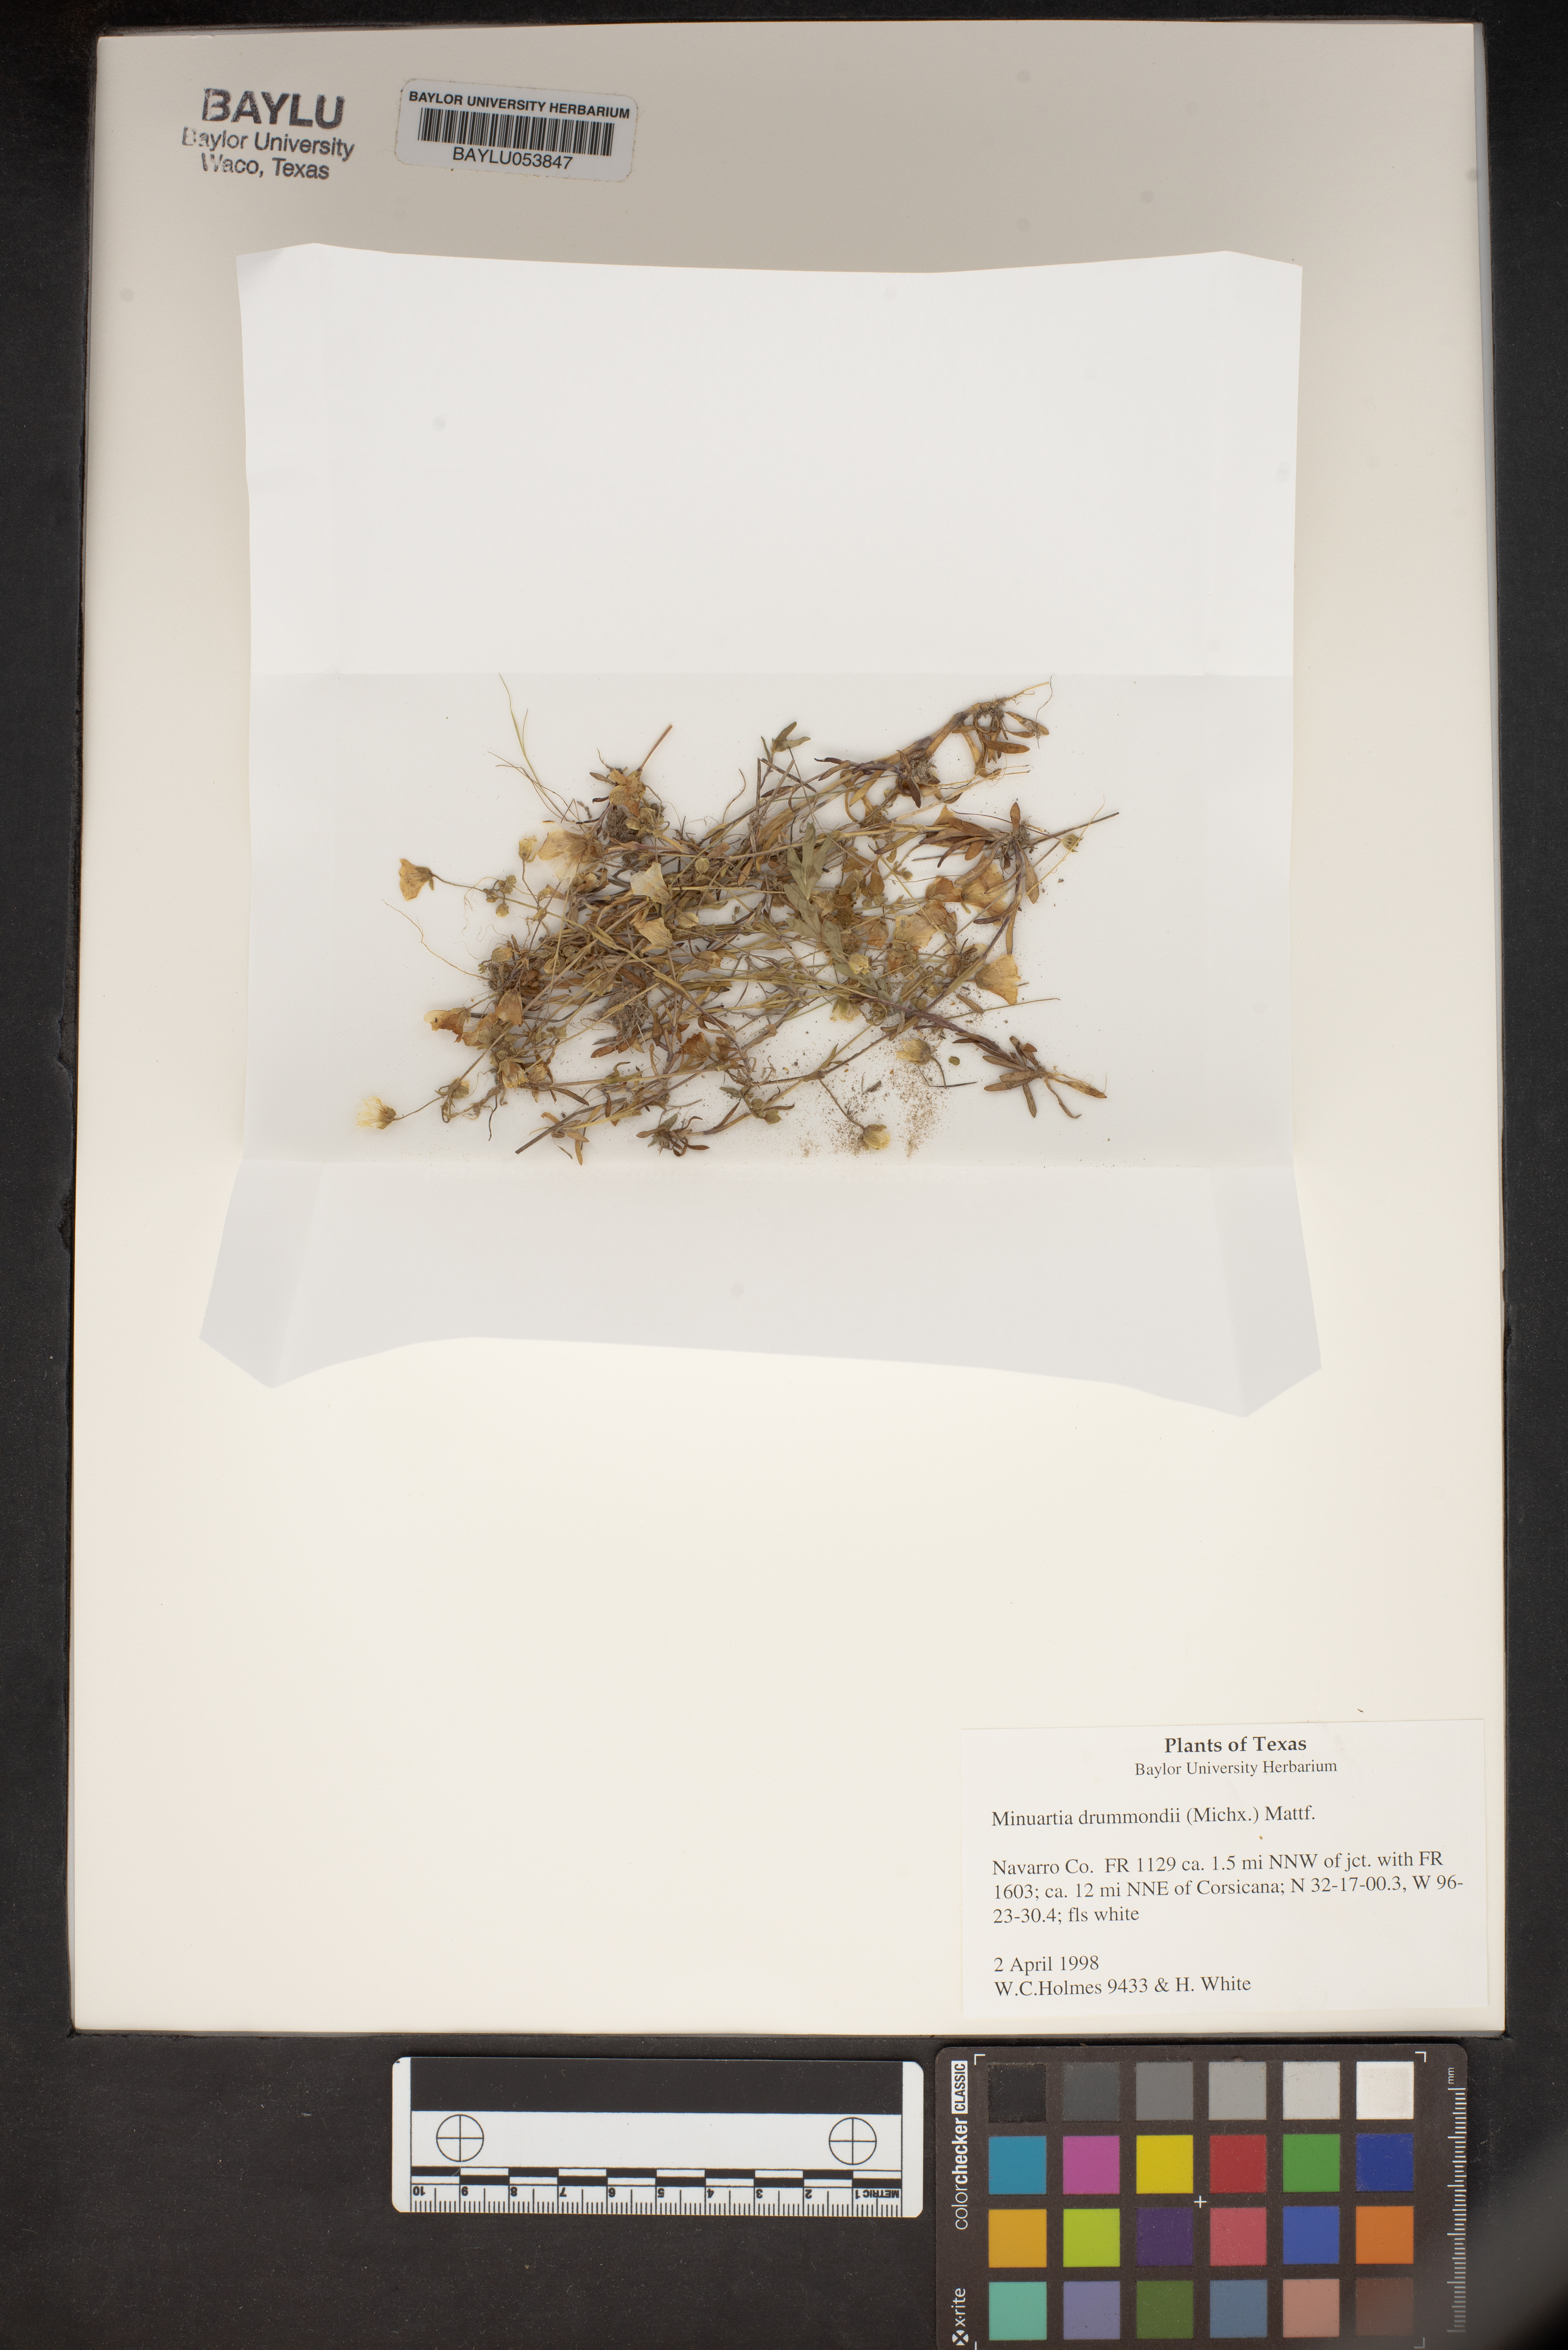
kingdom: Plantae
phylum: Tracheophyta
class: Magnoliopsida
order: Caryophyllales
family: Caryophyllaceae
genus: Geocarpon
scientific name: Geocarpon nuttallii
